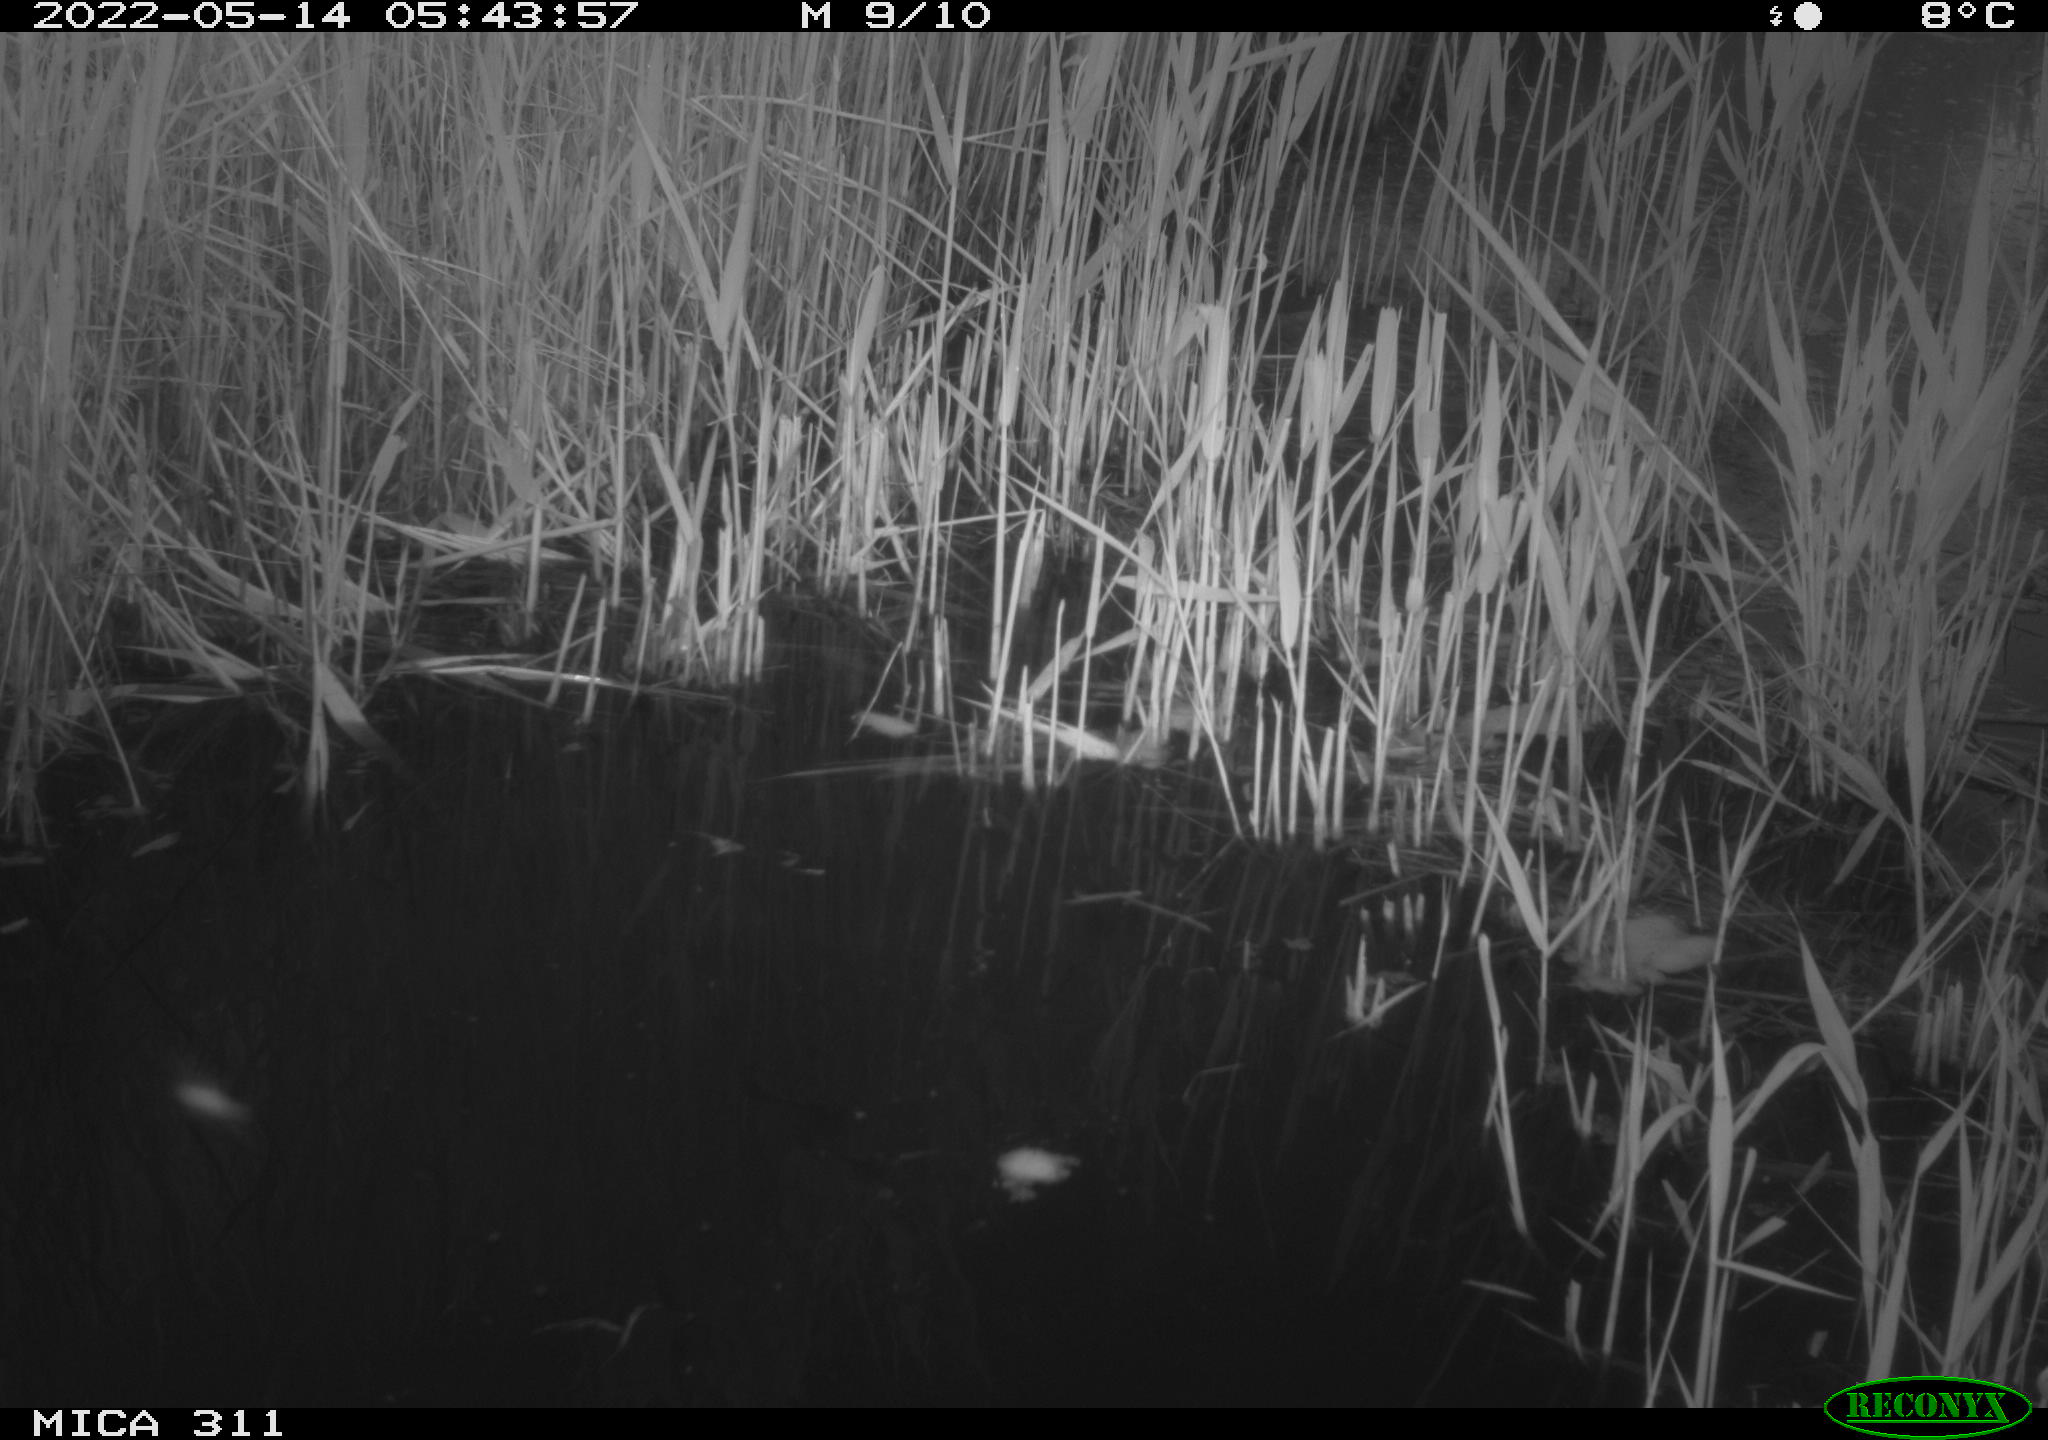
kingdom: Animalia
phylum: Chordata
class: Aves
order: Anseriformes
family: Anatidae
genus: Anas
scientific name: Anas
